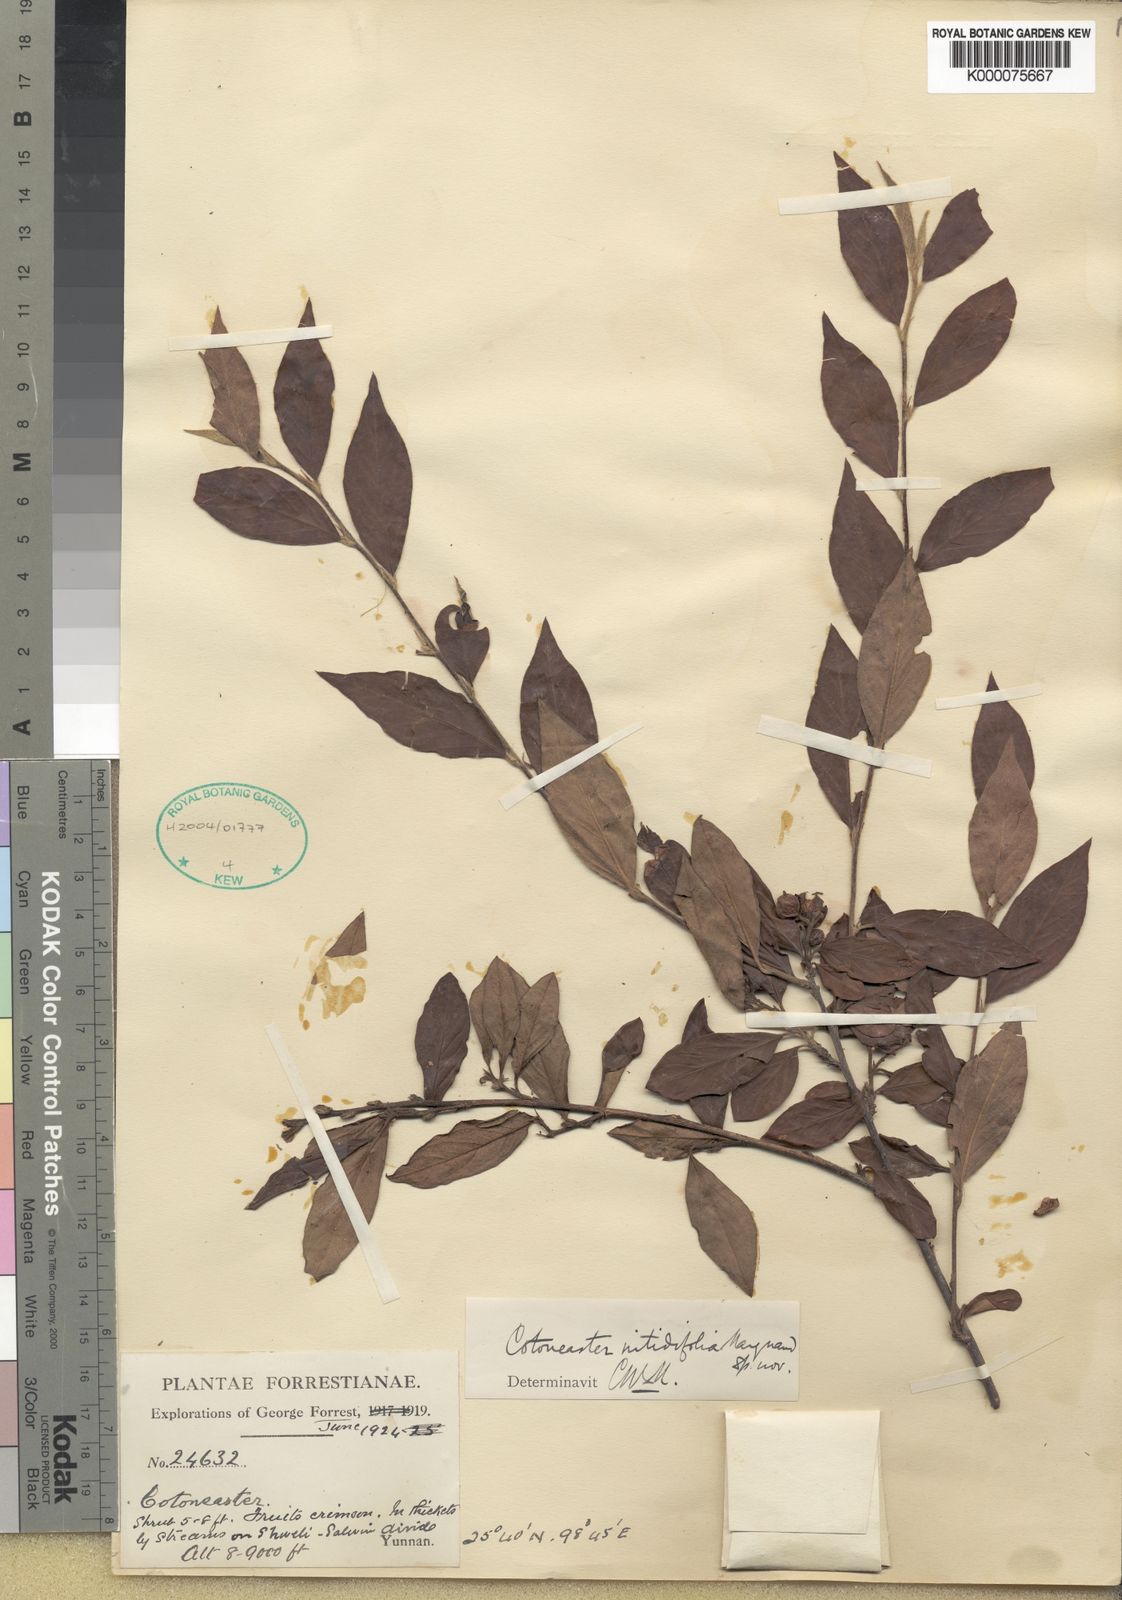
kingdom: Plantae
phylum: Tracheophyta
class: Magnoliopsida
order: Rosales
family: Rosaceae
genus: Cotoneaster
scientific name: Cotoneaster bullatus
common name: Hollyberry cotoneaster
